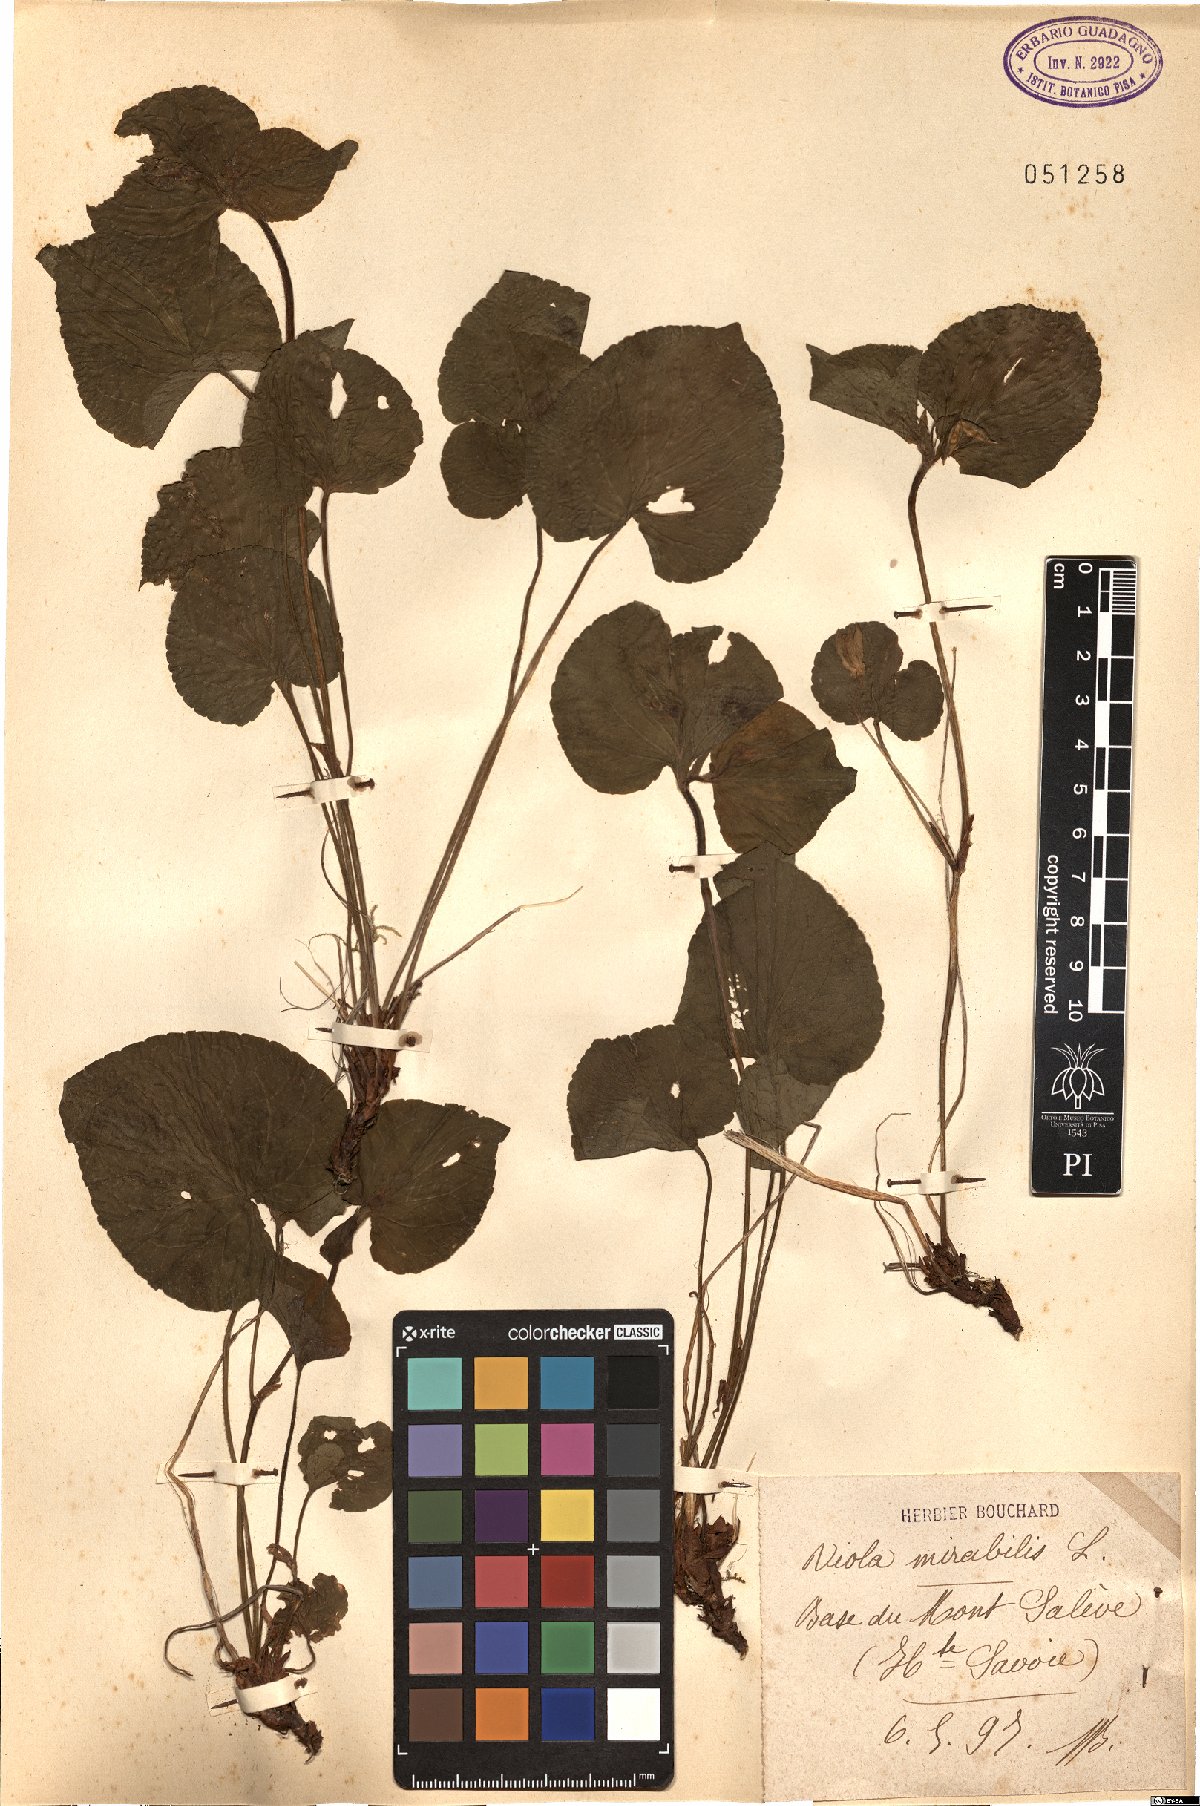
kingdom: Plantae
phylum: Tracheophyta
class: Magnoliopsida
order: Malpighiales
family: Violaceae
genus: Viola
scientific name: Viola mirabilis
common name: Wonder violet
